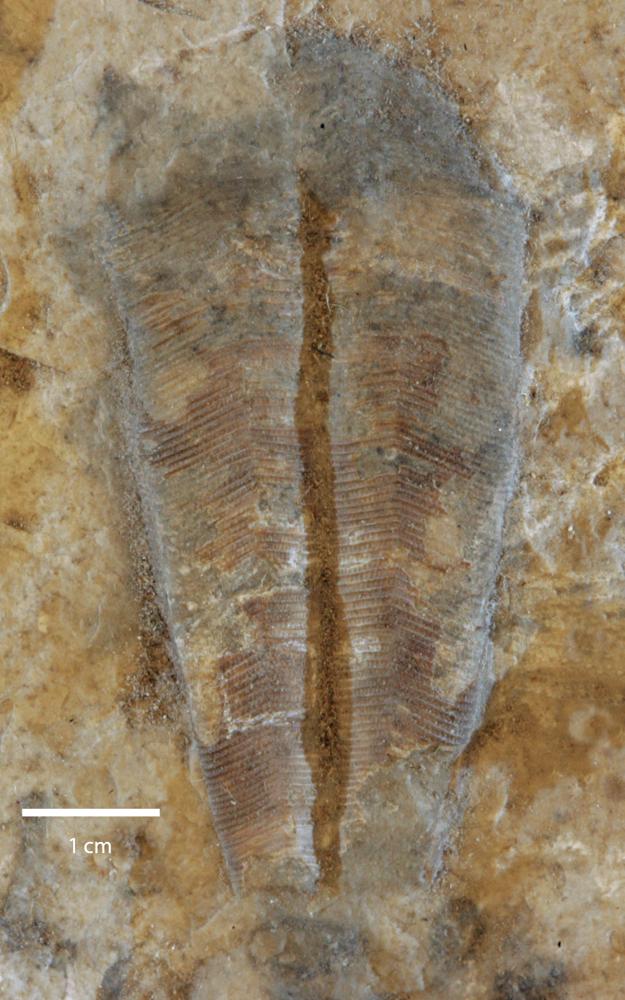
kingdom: Animalia
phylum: Cnidaria
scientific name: Cnidaria
